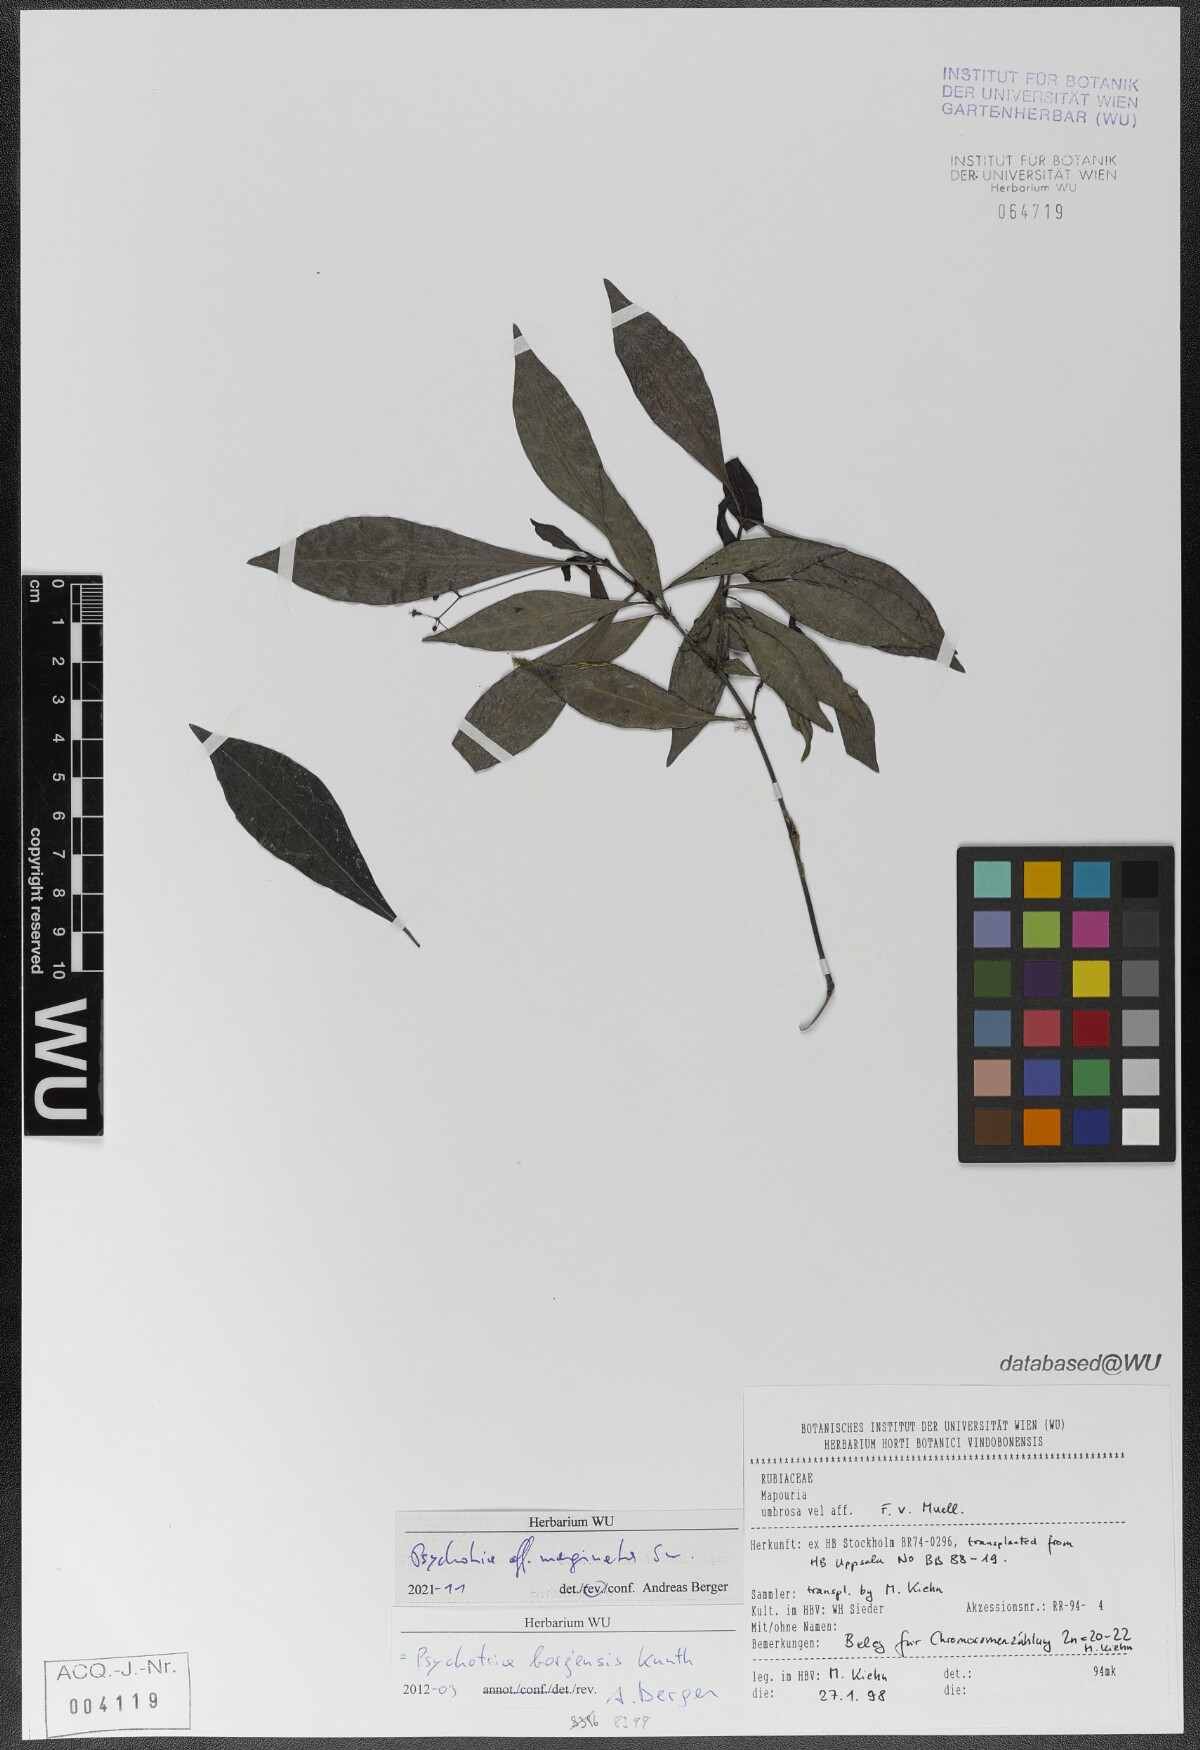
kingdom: Plantae
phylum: Tracheophyta
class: Magnoliopsida
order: Gentianales
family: Rubiaceae
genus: Psychotria
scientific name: Psychotria marginata
